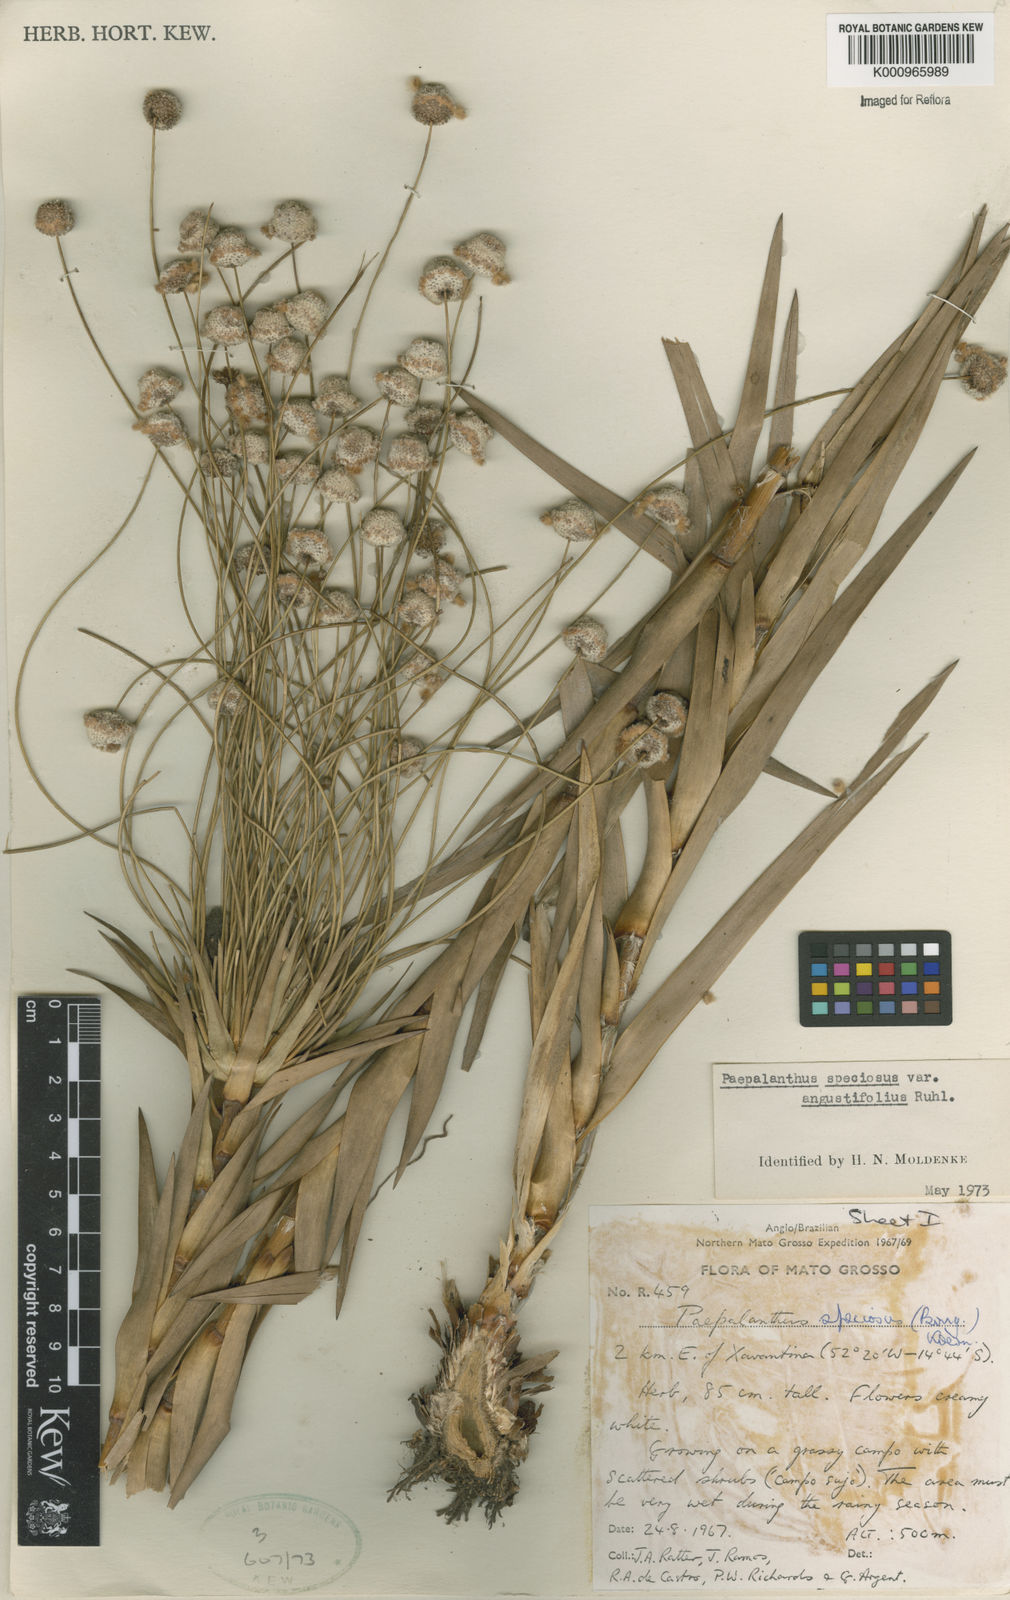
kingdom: Plantae
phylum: Tracheophyta
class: Liliopsida
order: Poales
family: Eriocaulaceae
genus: Paepalanthus
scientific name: Paepalanthus chiquitensis
